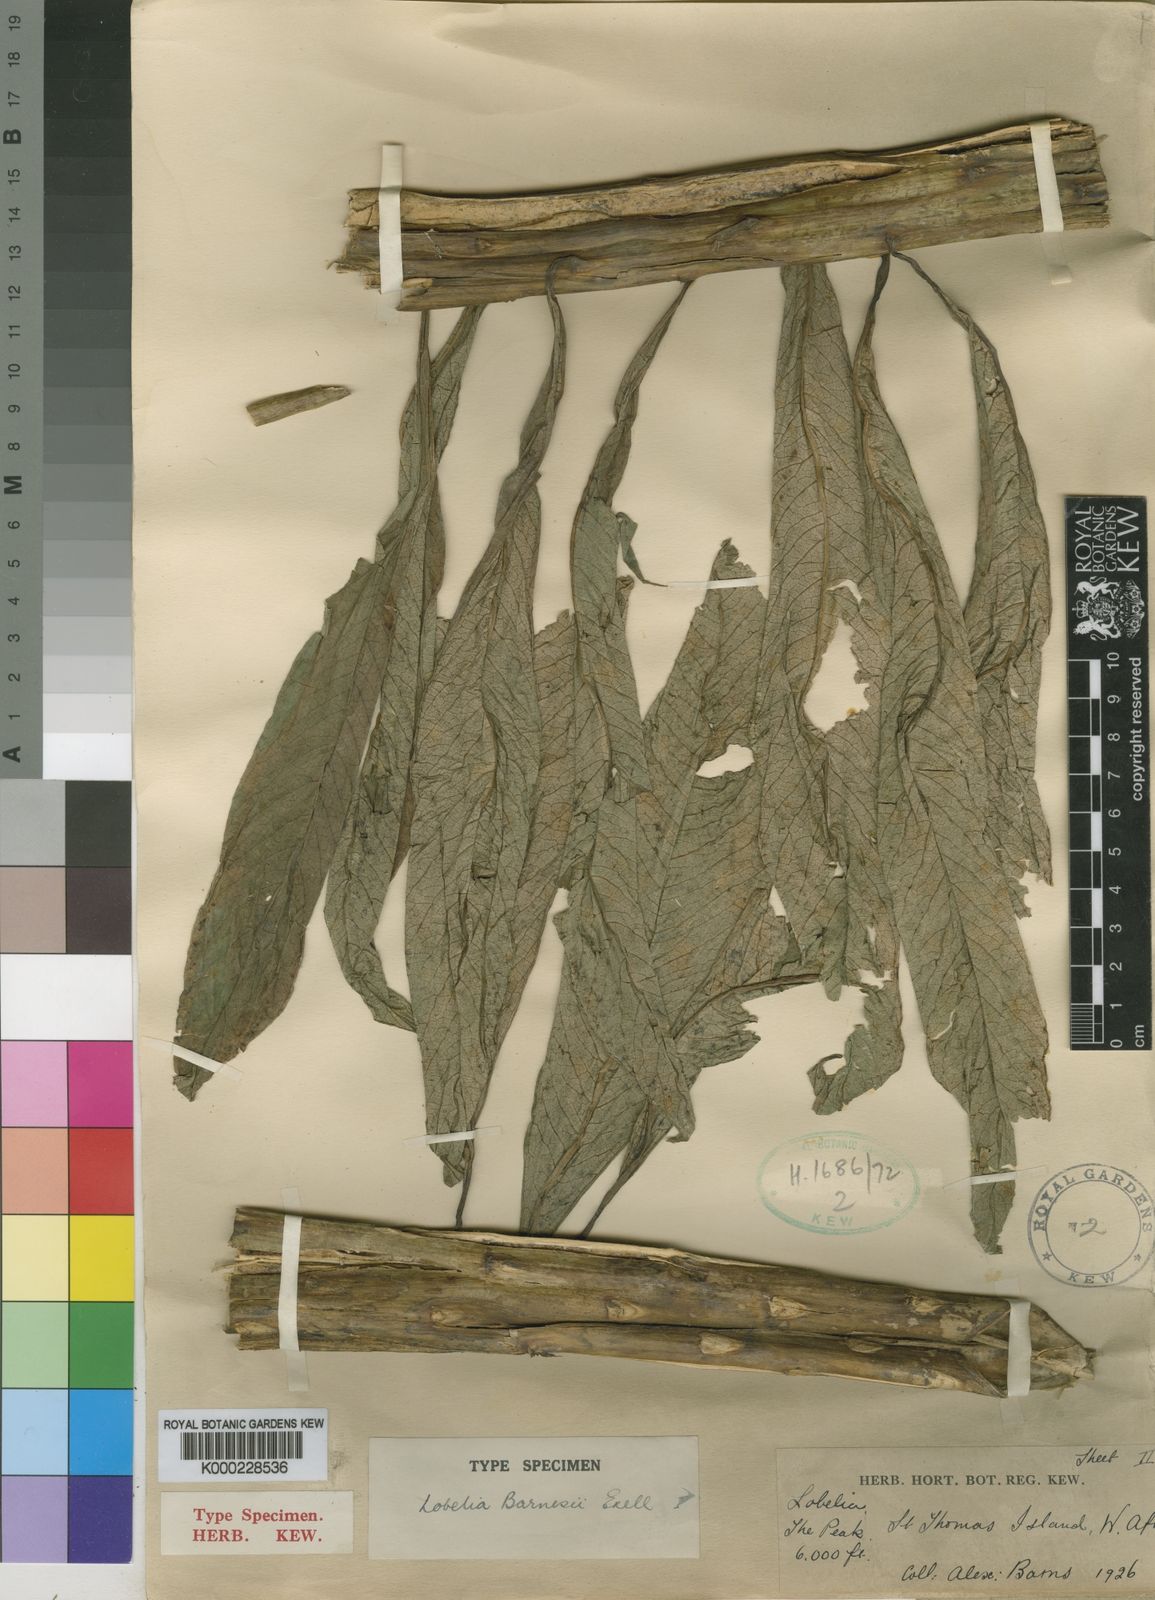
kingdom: Plantae
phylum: Tracheophyta
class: Magnoliopsida
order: Asterales
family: Campanulaceae
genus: Lobelia
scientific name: Lobelia barnsii
